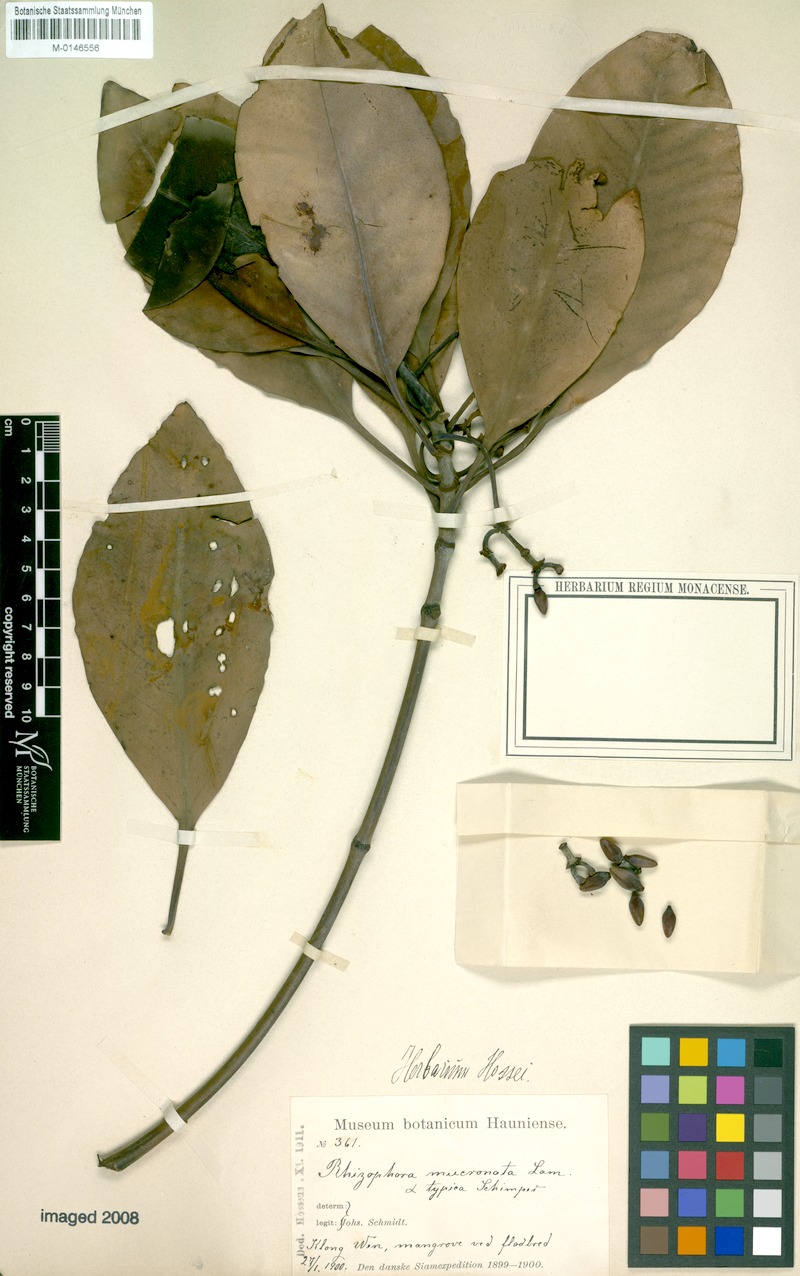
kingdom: Plantae
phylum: Tracheophyta
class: Magnoliopsida
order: Malpighiales
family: Rhizophoraceae
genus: Rhizophora
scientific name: Rhizophora stylosa
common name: Red mangrove
